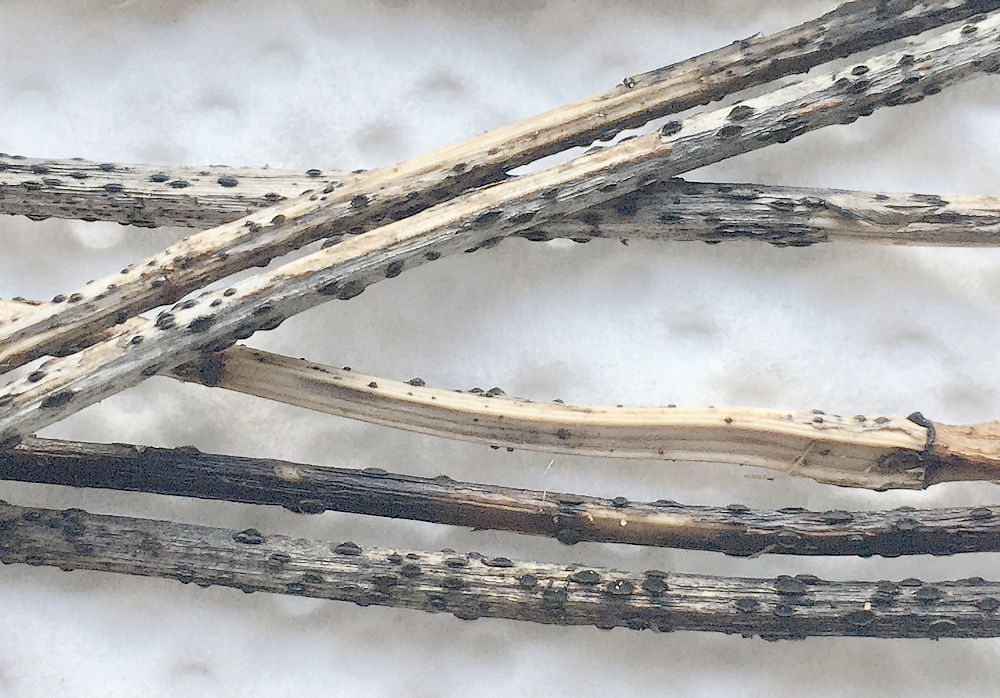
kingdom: Fungi
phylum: Ascomycota
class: Leotiomycetes
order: Helotiales
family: Ploettnerulaceae
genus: Pyrenopeziza
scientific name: Pyrenopeziza petiolaris
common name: ahorn-kerneskive
